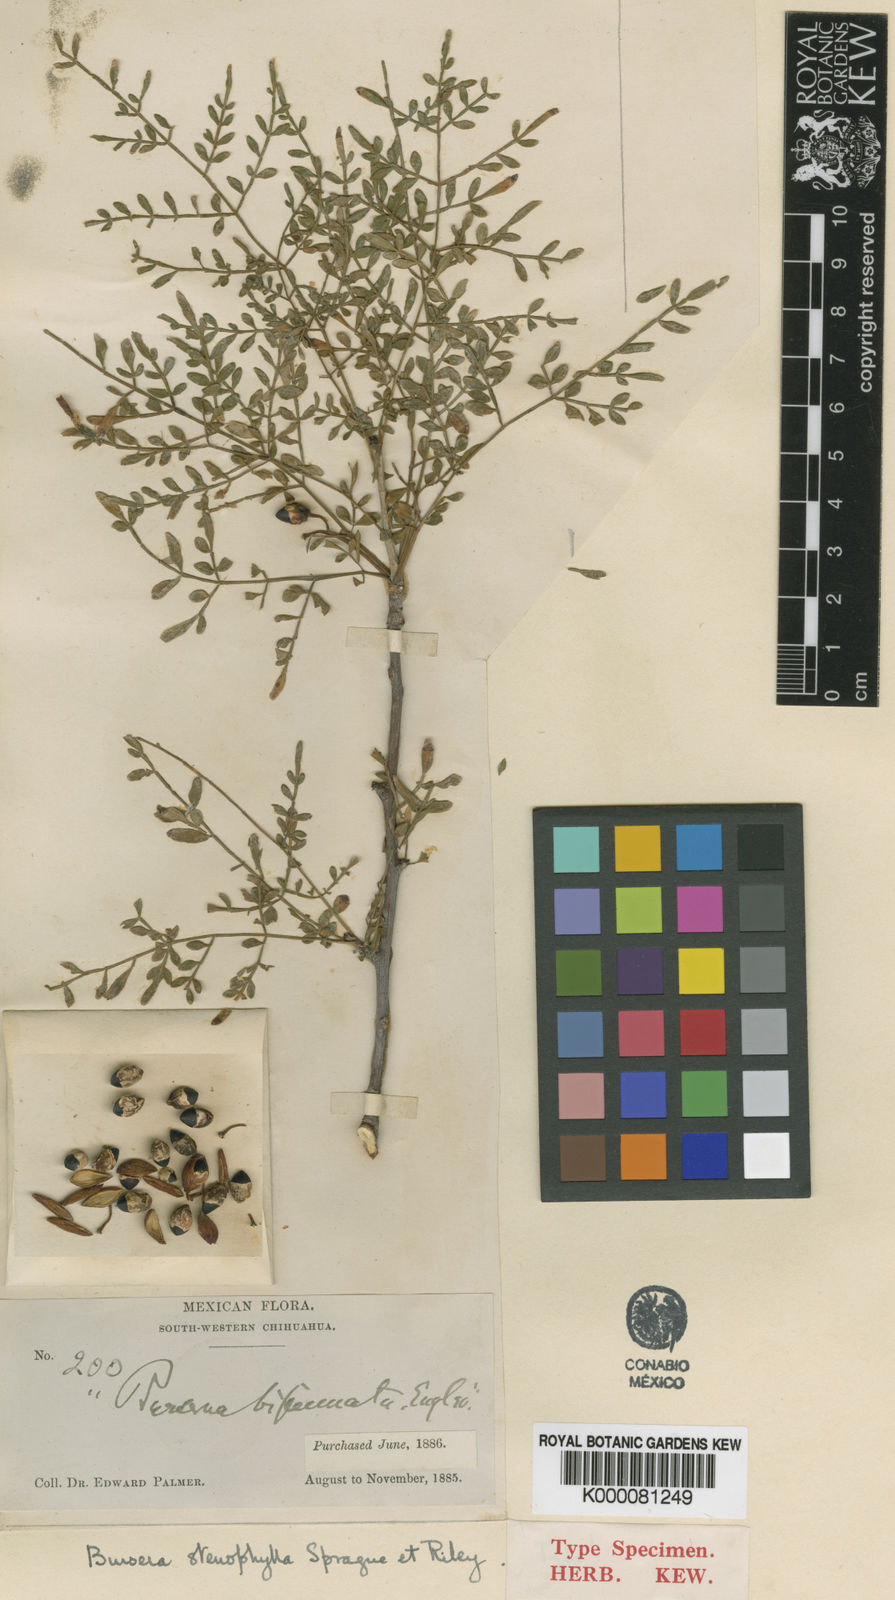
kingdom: Plantae
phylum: Tracheophyta
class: Magnoliopsida
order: Sapindales
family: Burseraceae
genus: Bursera
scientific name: Bursera stenophylla
